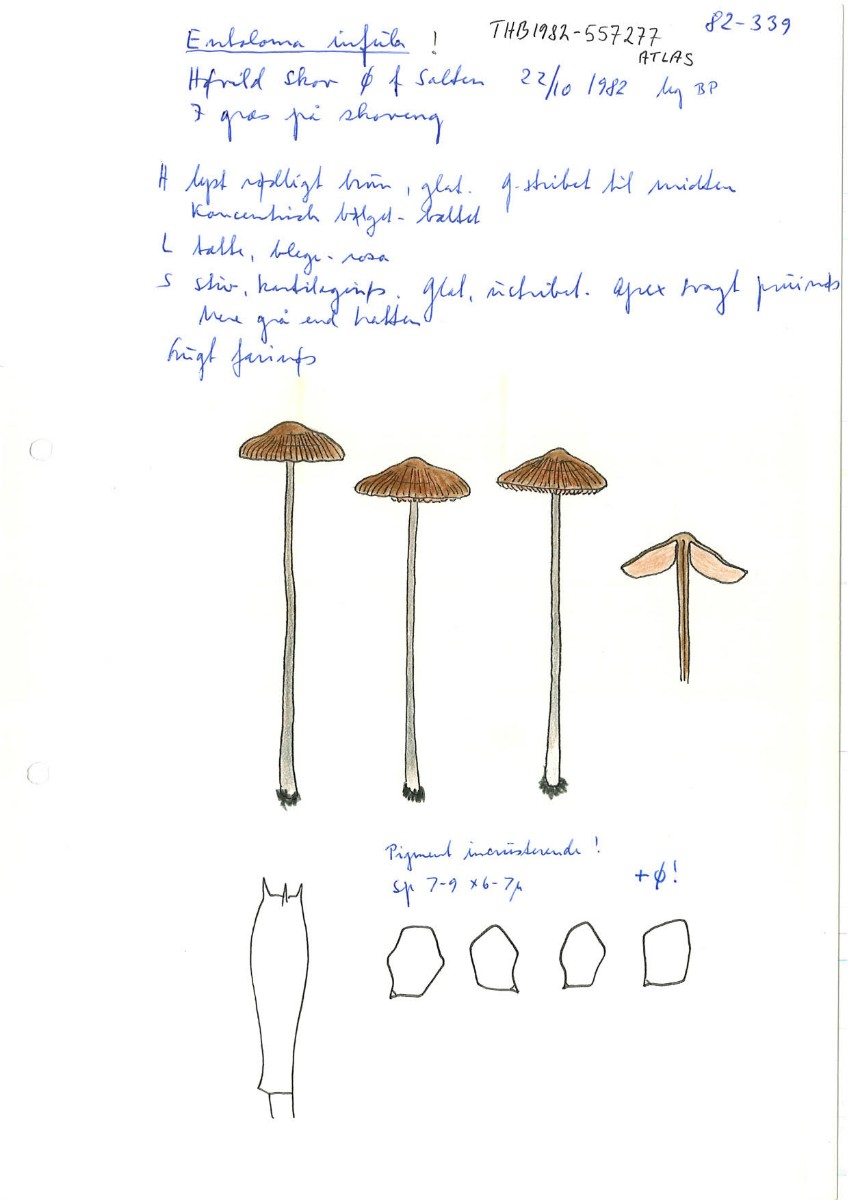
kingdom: Fungi
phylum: Basidiomycota
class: Agaricomycetes
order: Agaricales
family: Entolomataceae
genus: Entoloma
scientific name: Entoloma infula
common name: hvidbladet rødblad
